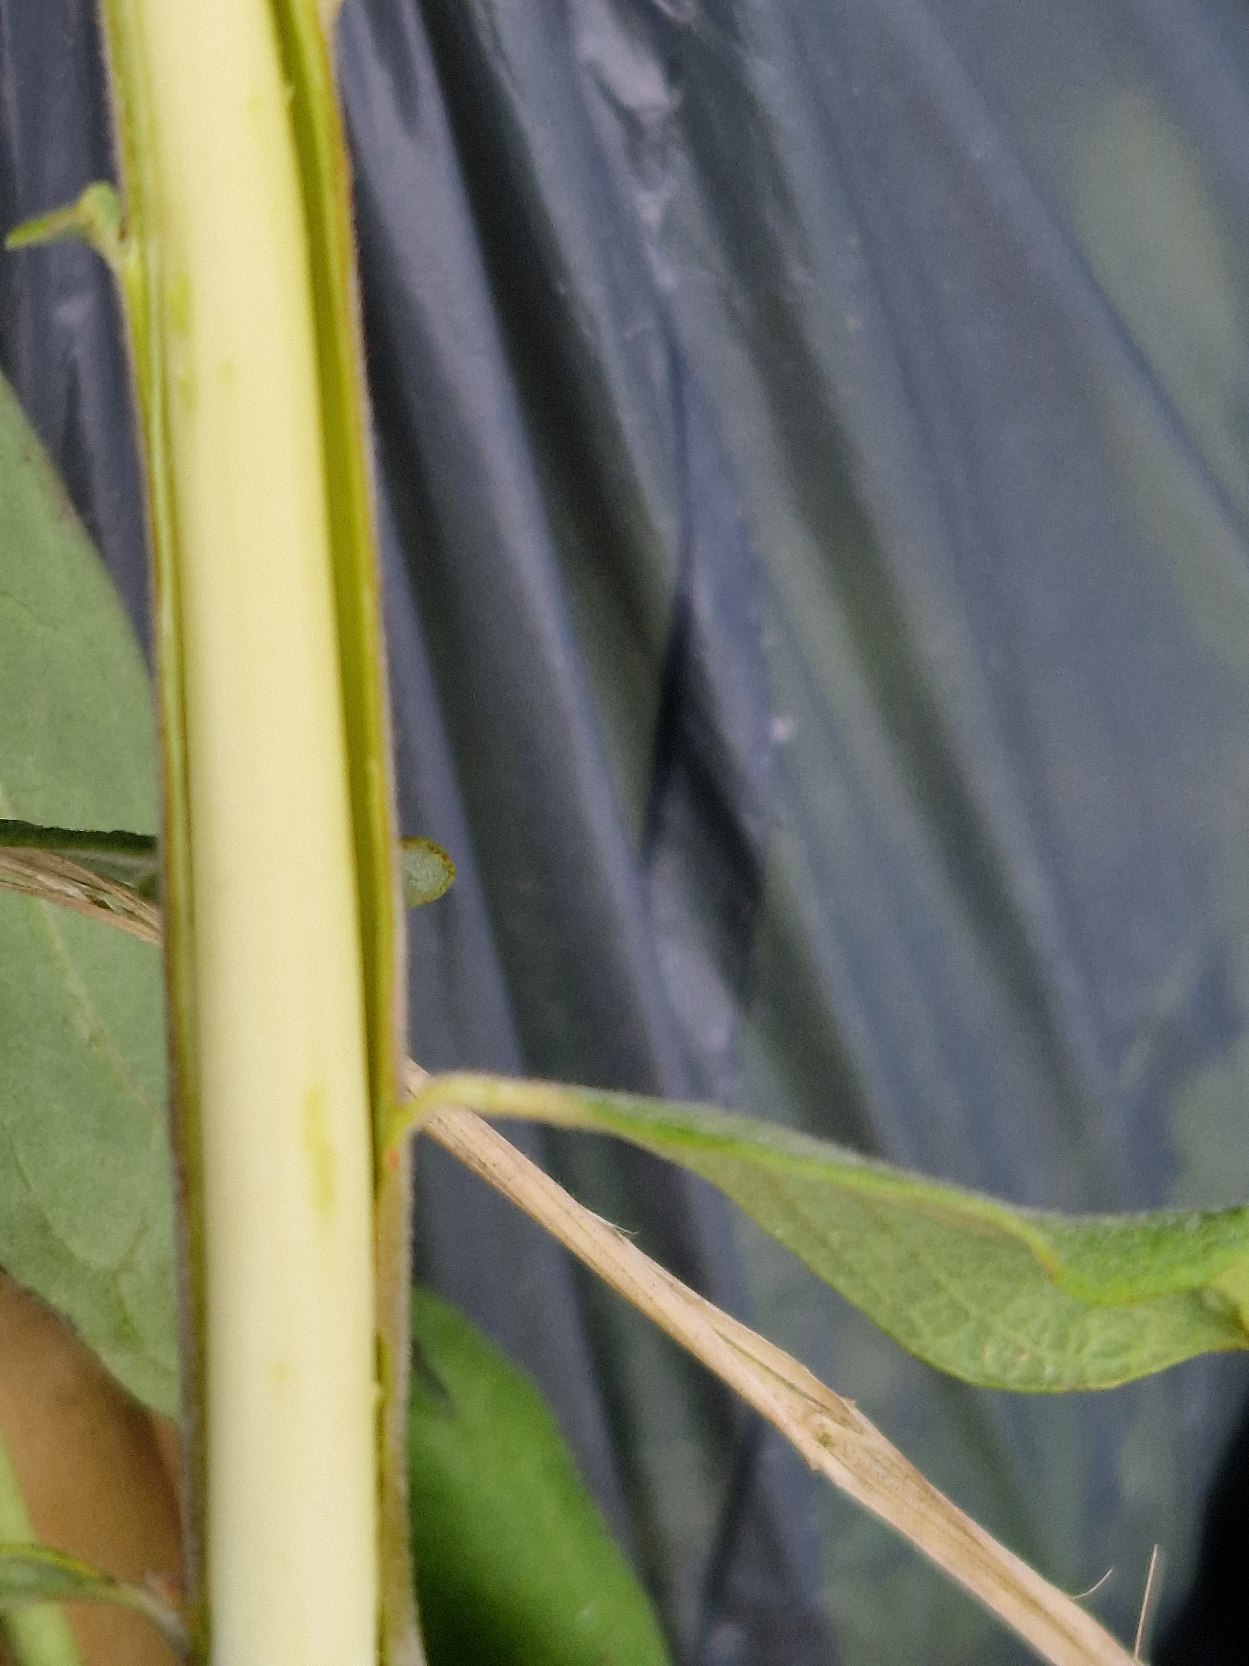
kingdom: Plantae
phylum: Tracheophyta
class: Magnoliopsida
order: Malpighiales
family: Salicaceae
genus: Salix
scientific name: Salix cinerea
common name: Grå-pil
